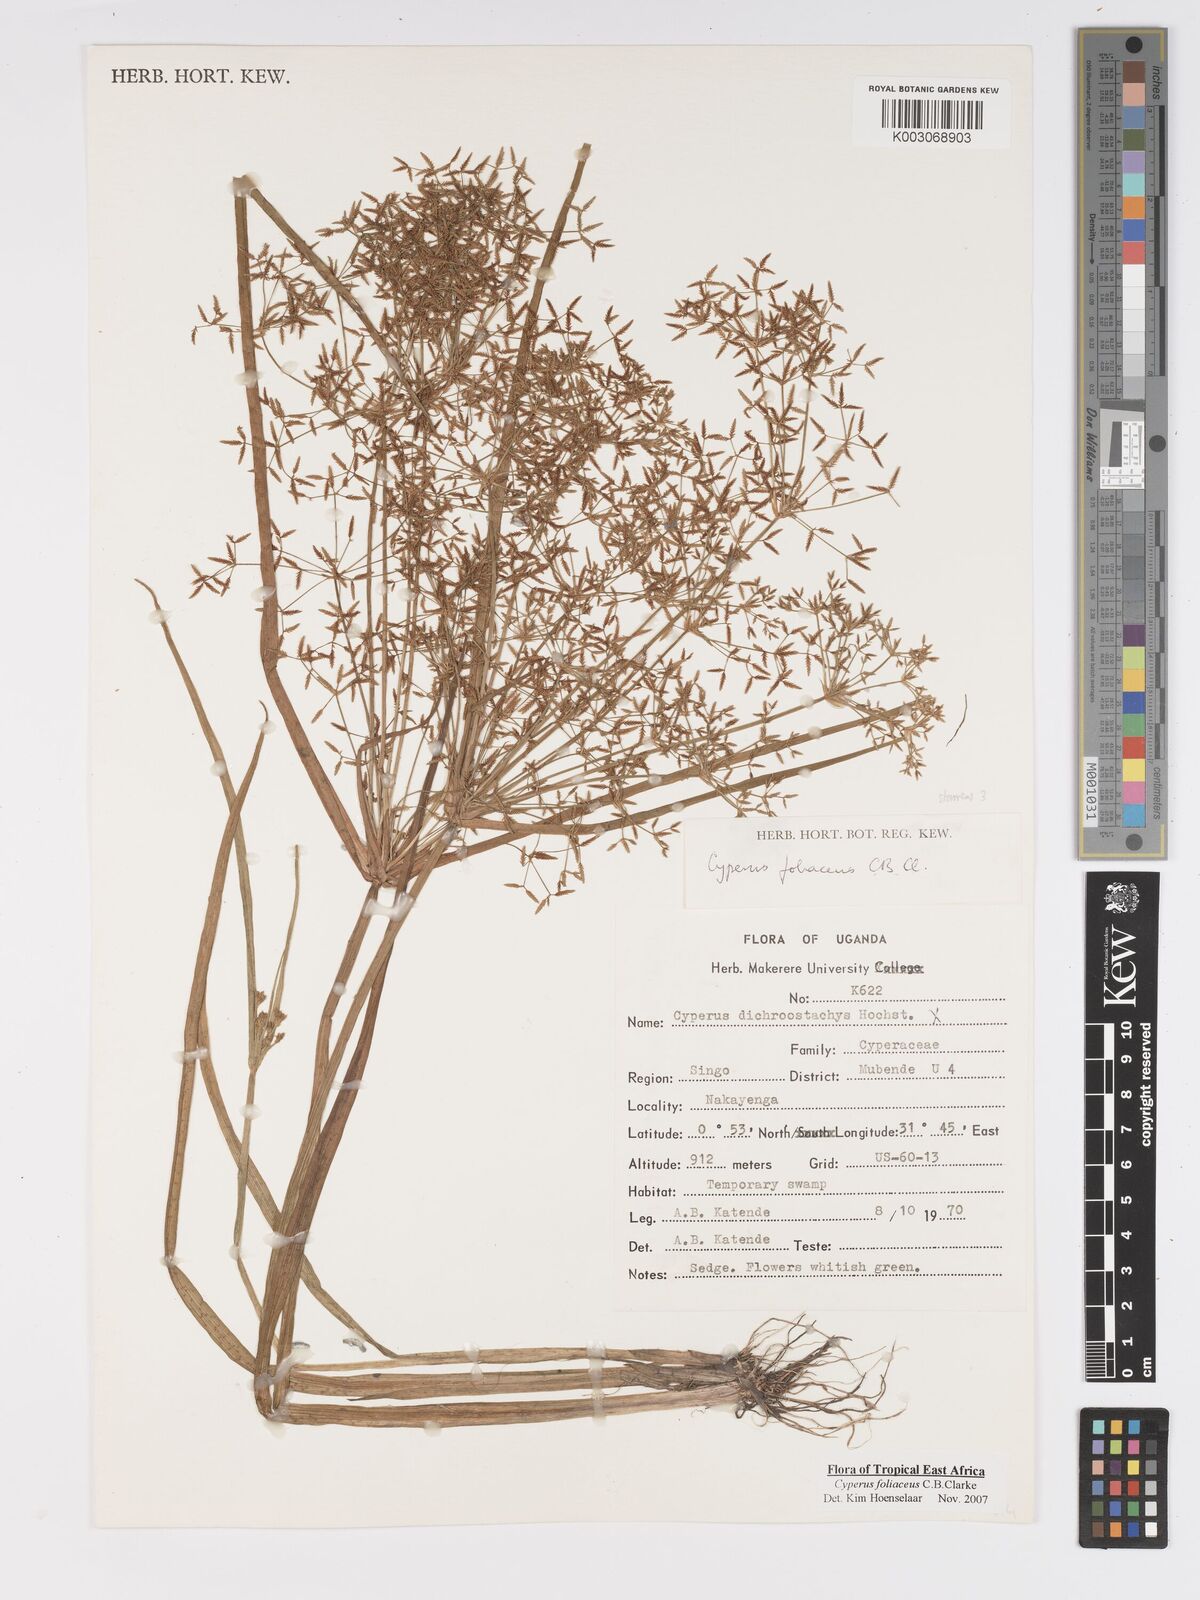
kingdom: Plantae
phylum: Tracheophyta
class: Liliopsida
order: Poales
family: Cyperaceae
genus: Cyperus
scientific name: Cyperus foliaceus
